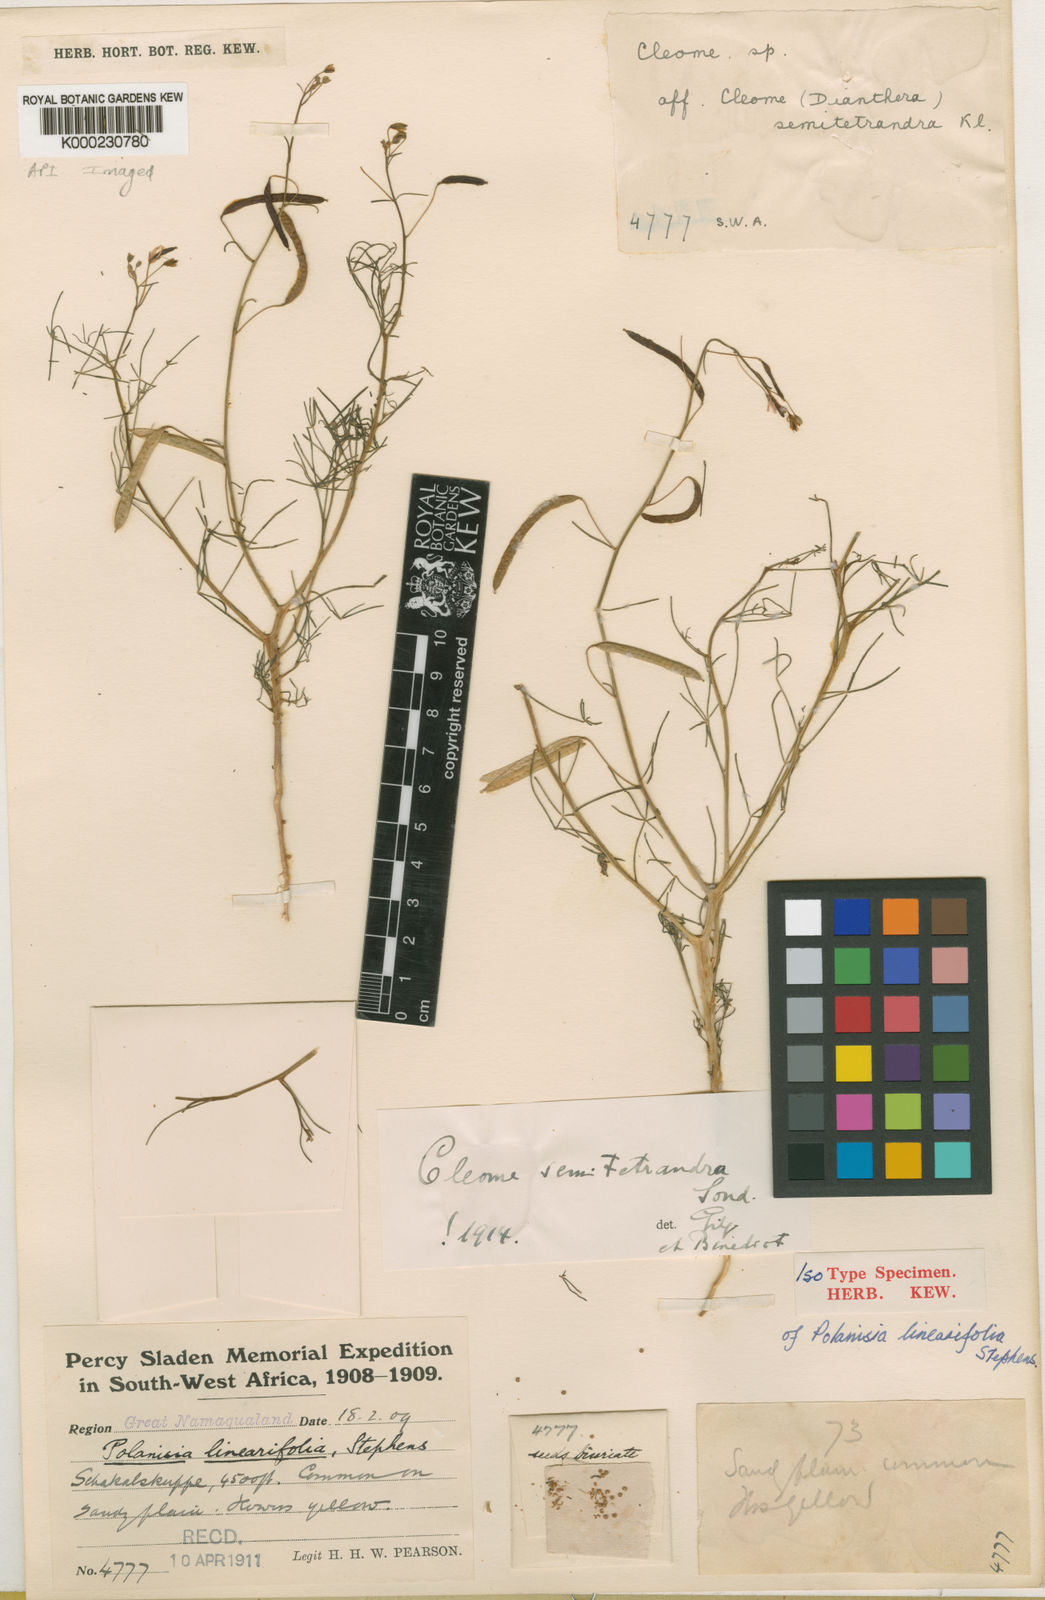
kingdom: Plantae
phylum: Tracheophyta
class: Magnoliopsida
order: Brassicales
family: Cleomaceae
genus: Coalisina
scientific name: Coalisina semitetrandra
